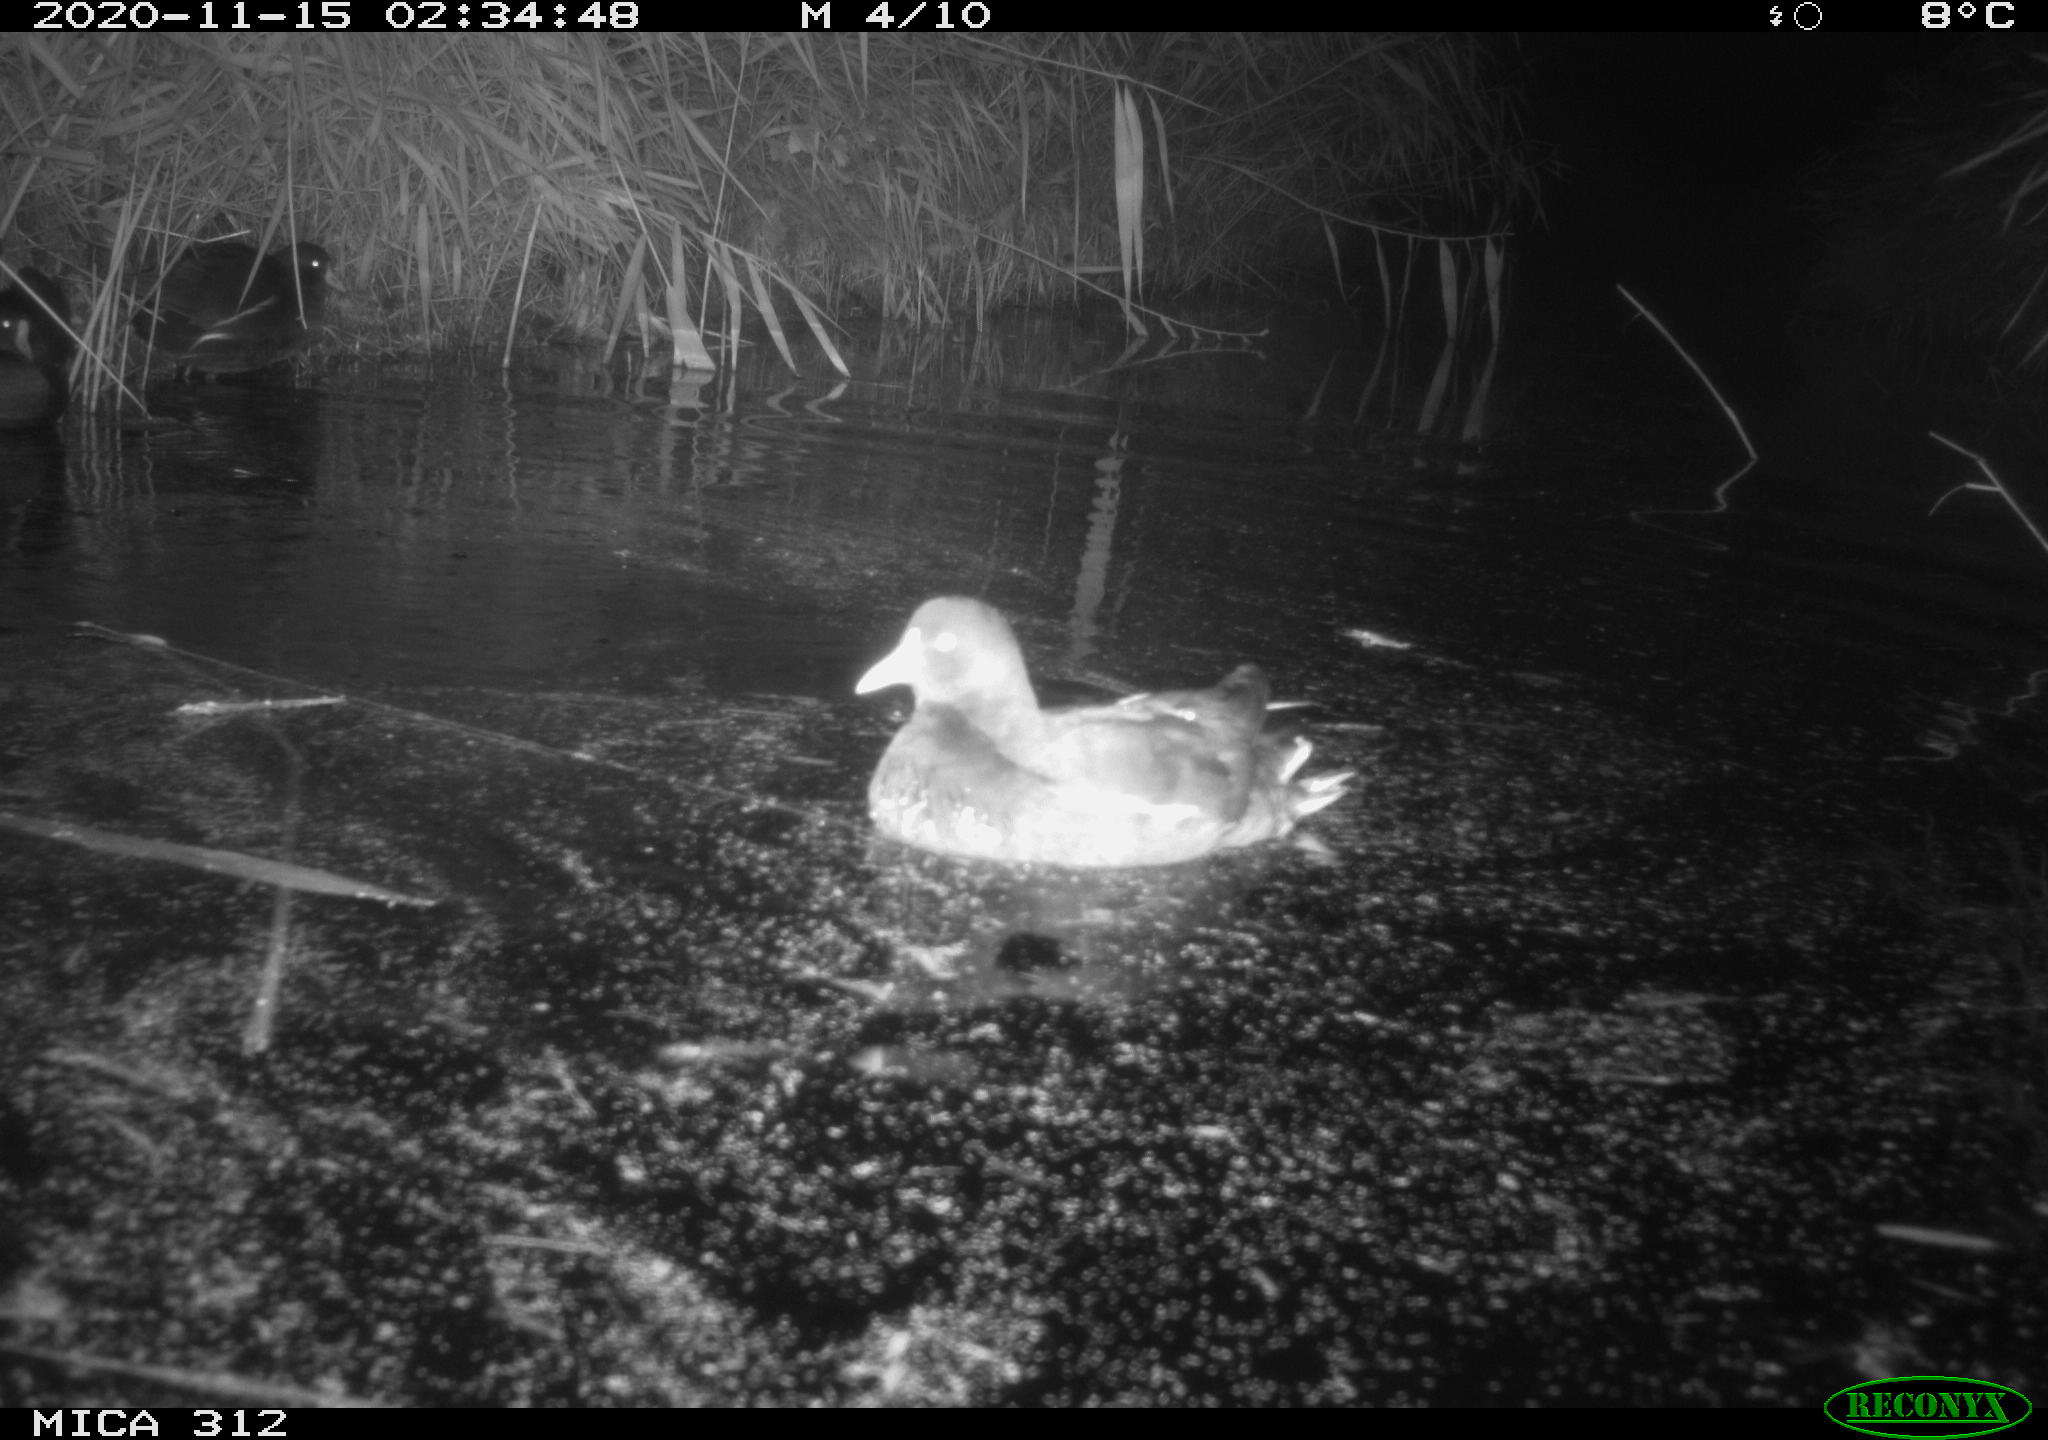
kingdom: Animalia
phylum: Chordata
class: Aves
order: Gruiformes
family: Rallidae
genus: Gallinula
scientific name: Gallinula chloropus
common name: Common moorhen
